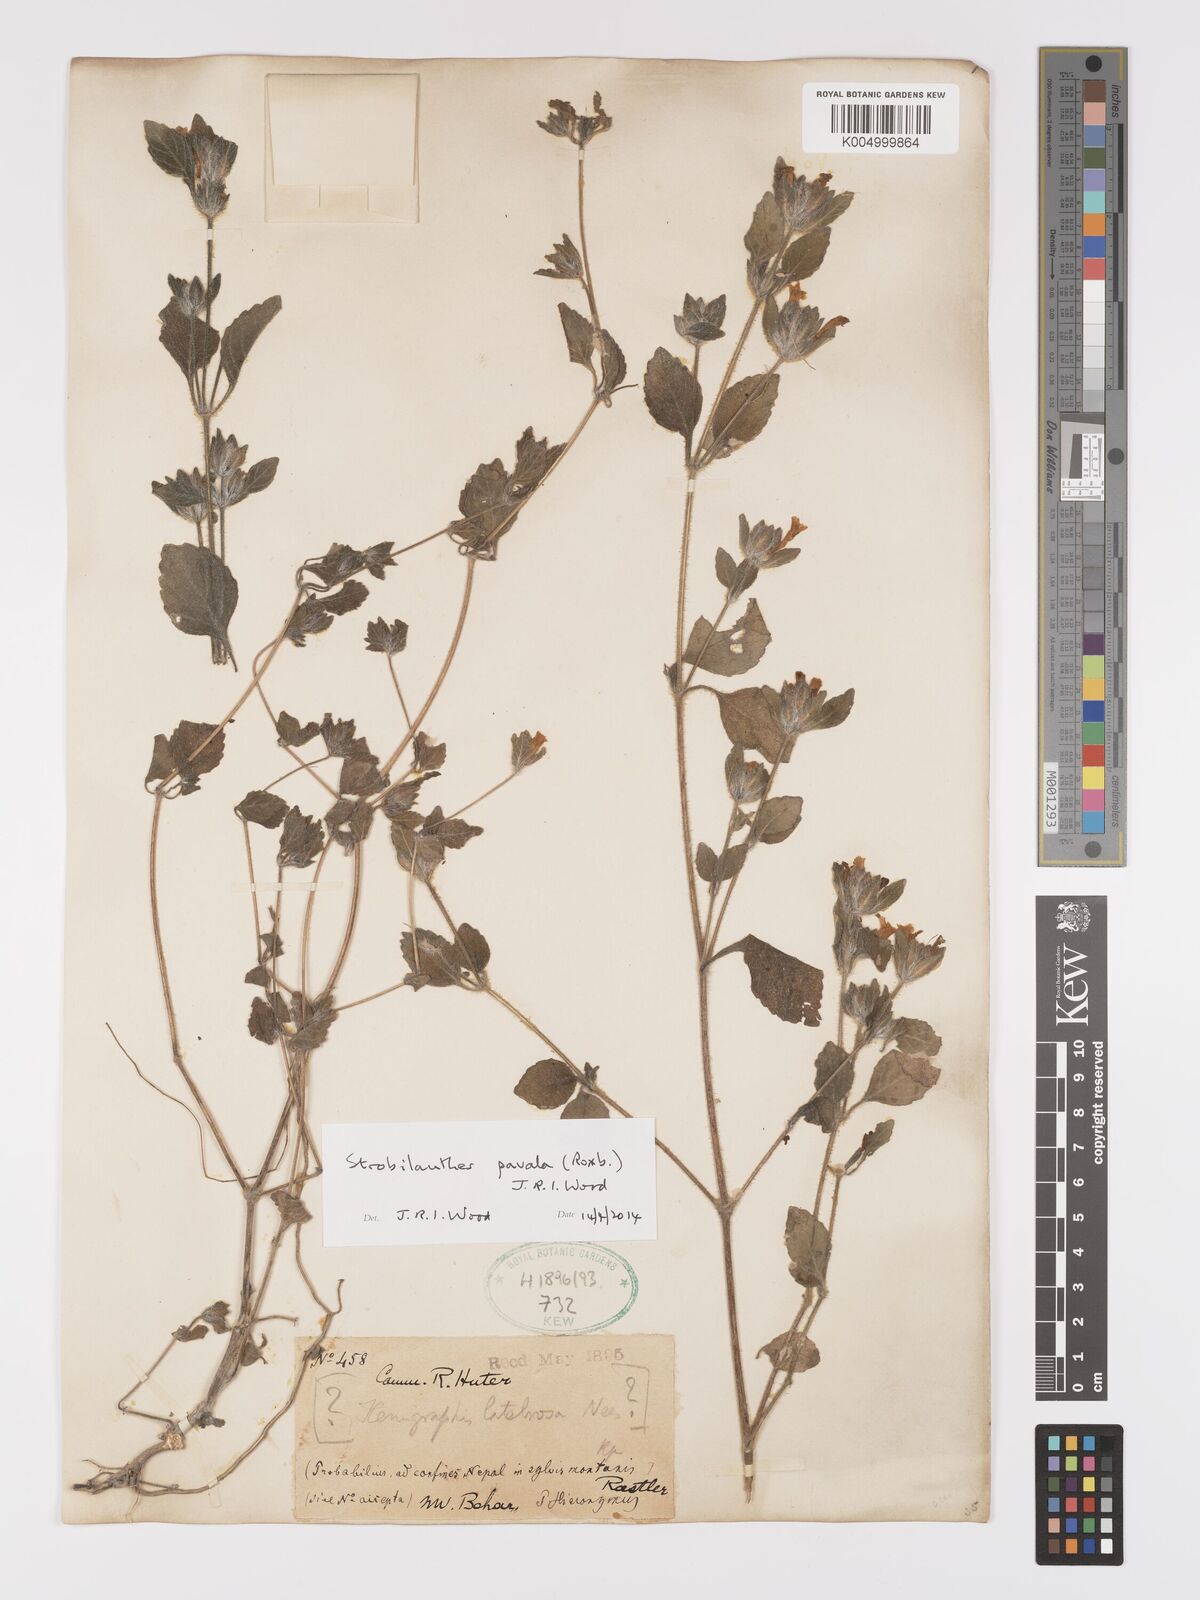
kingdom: Plantae
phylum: Tracheophyta
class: Magnoliopsida
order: Lamiales
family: Acanthaceae
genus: Strobilanthes
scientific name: Strobilanthes pavala
